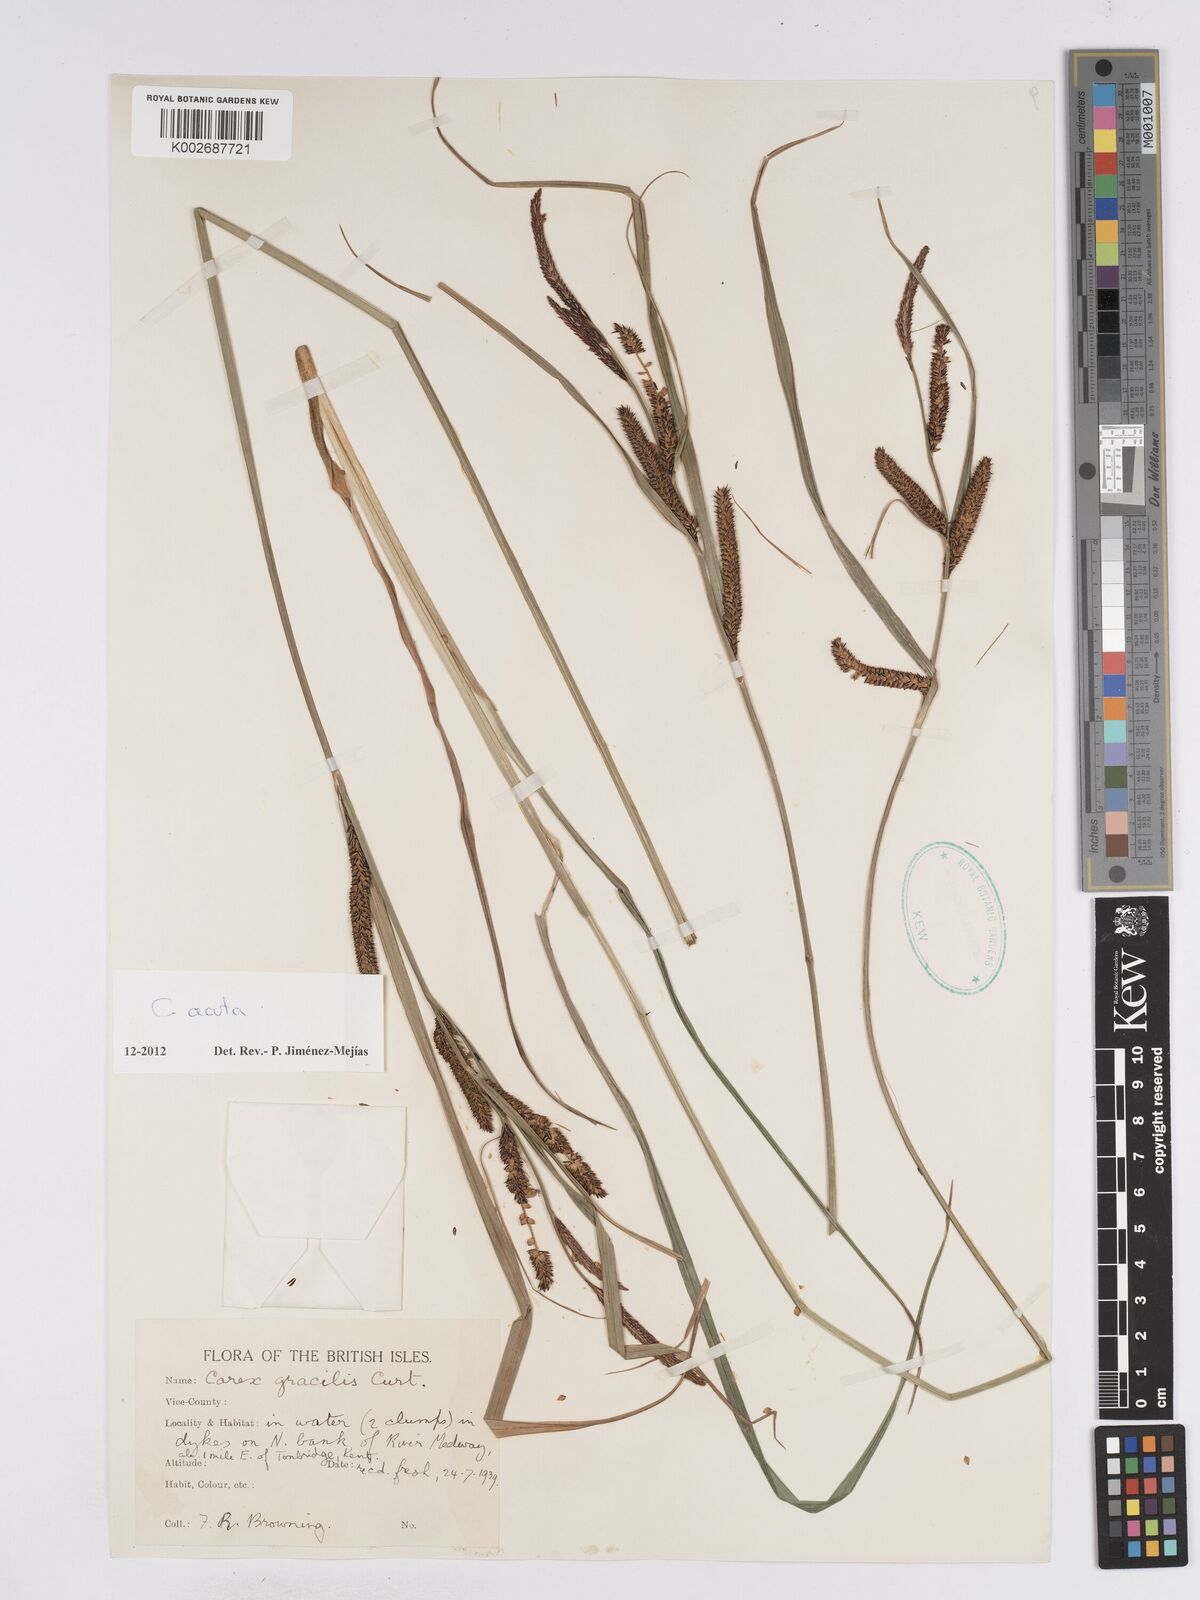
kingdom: Plantae
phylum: Tracheophyta
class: Liliopsida
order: Poales
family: Cyperaceae
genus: Carex
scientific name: Carex acuta
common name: Slender tufted-sedge
